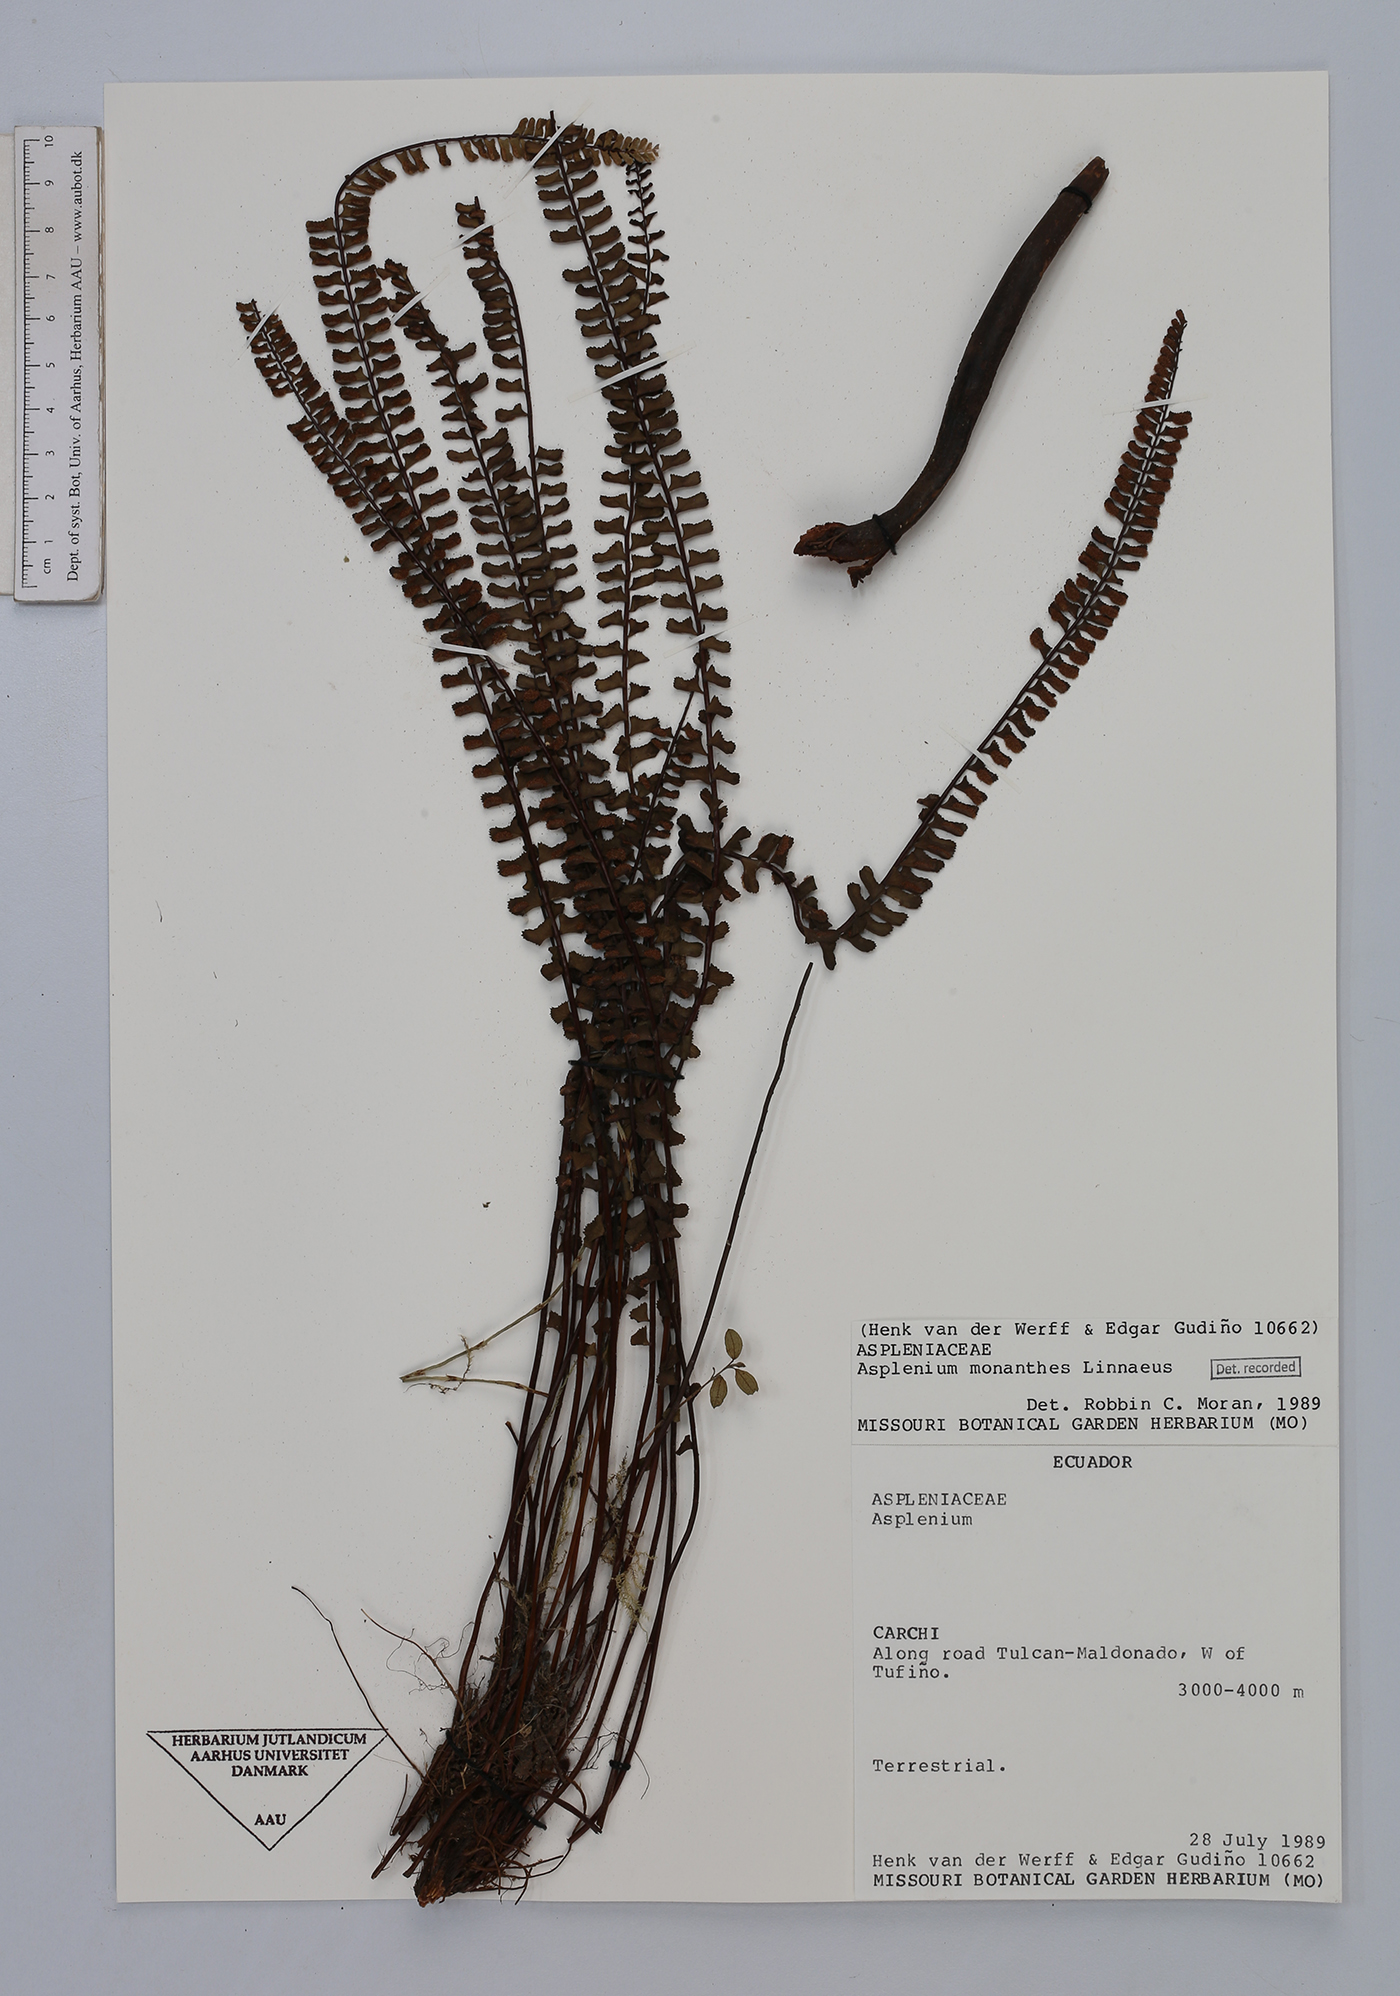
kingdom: Plantae
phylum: Tracheophyta
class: Polypodiopsida
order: Polypodiales
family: Aspleniaceae
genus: Asplenium
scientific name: Asplenium monanthes
